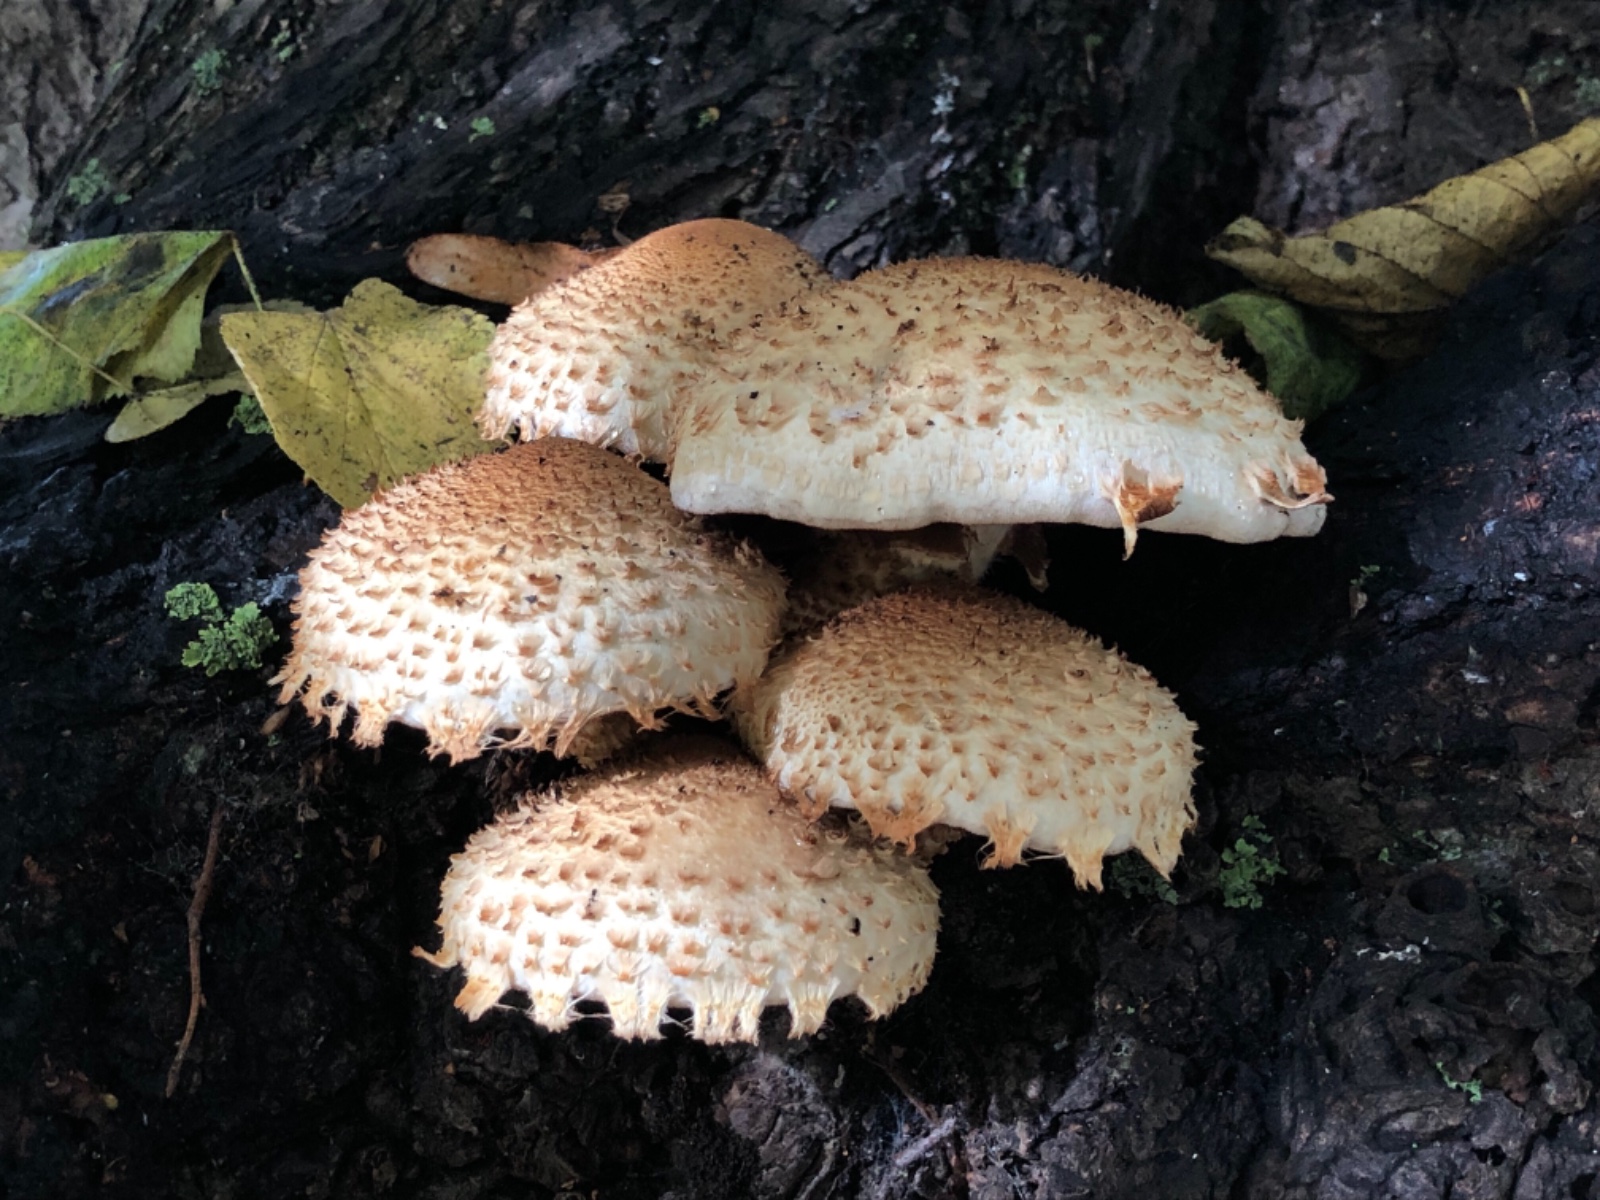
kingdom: Fungi
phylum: Basidiomycota
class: Agaricomycetes
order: Agaricales
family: Strophariaceae
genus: Pholiota
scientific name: Pholiota squarrosa
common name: krumskællet skælhat
